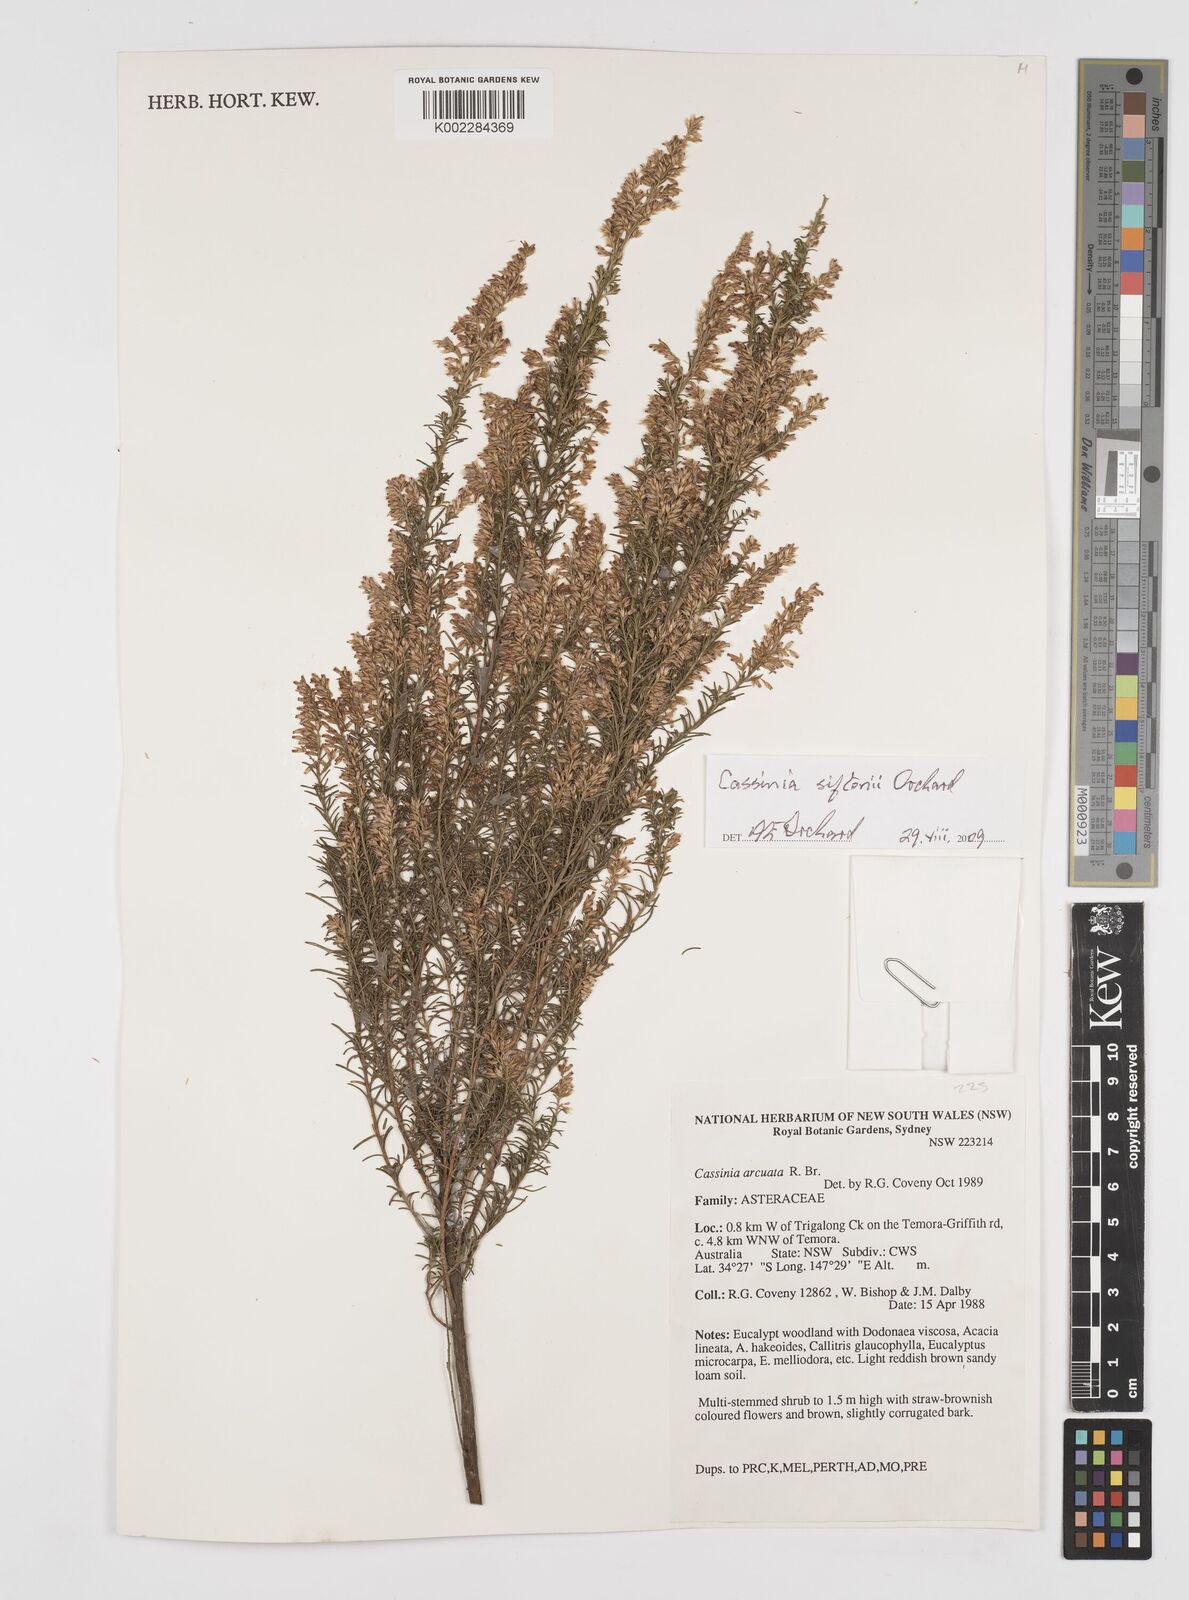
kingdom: Plantae
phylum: Tracheophyta
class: Magnoliopsida
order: Asterales
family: Asteraceae
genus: Cassinia
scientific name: Cassinia arcuata
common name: Chineseshrub
